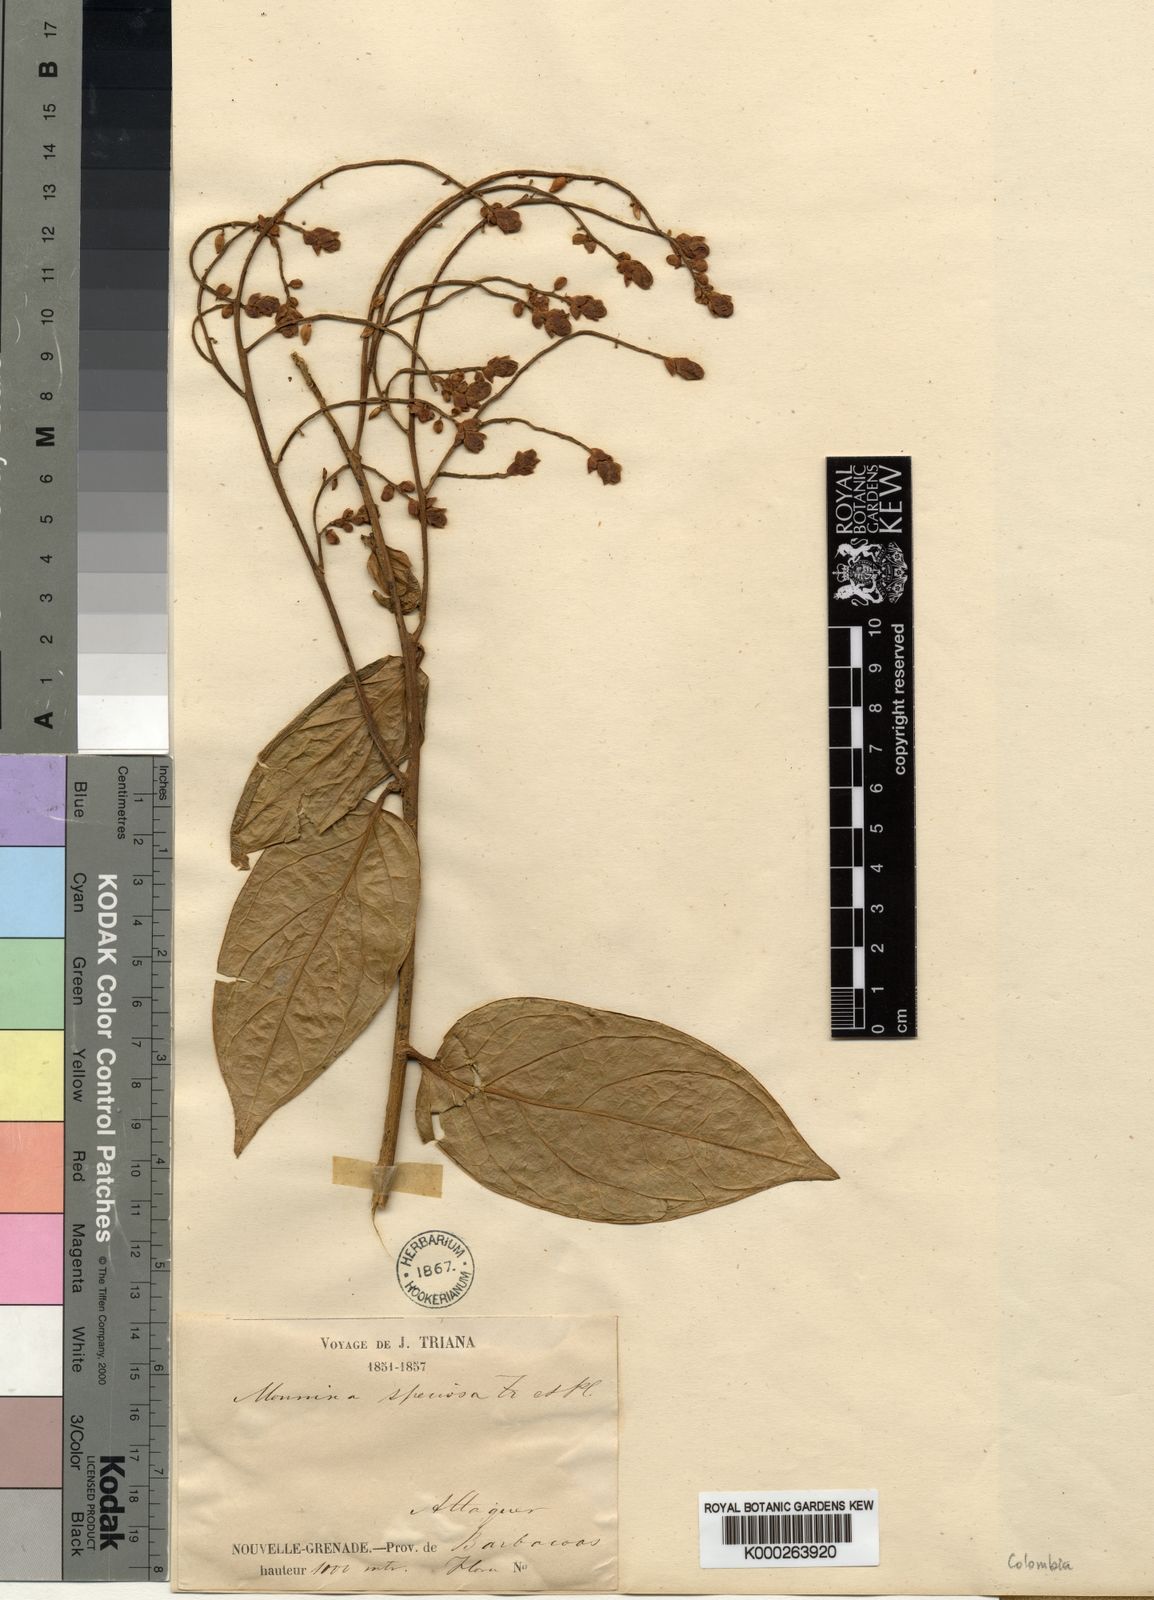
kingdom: Plantae
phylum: Tracheophyta
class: Magnoliopsida
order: Fabales
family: Polygalaceae
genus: Monnina
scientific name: Monnina speciosa
